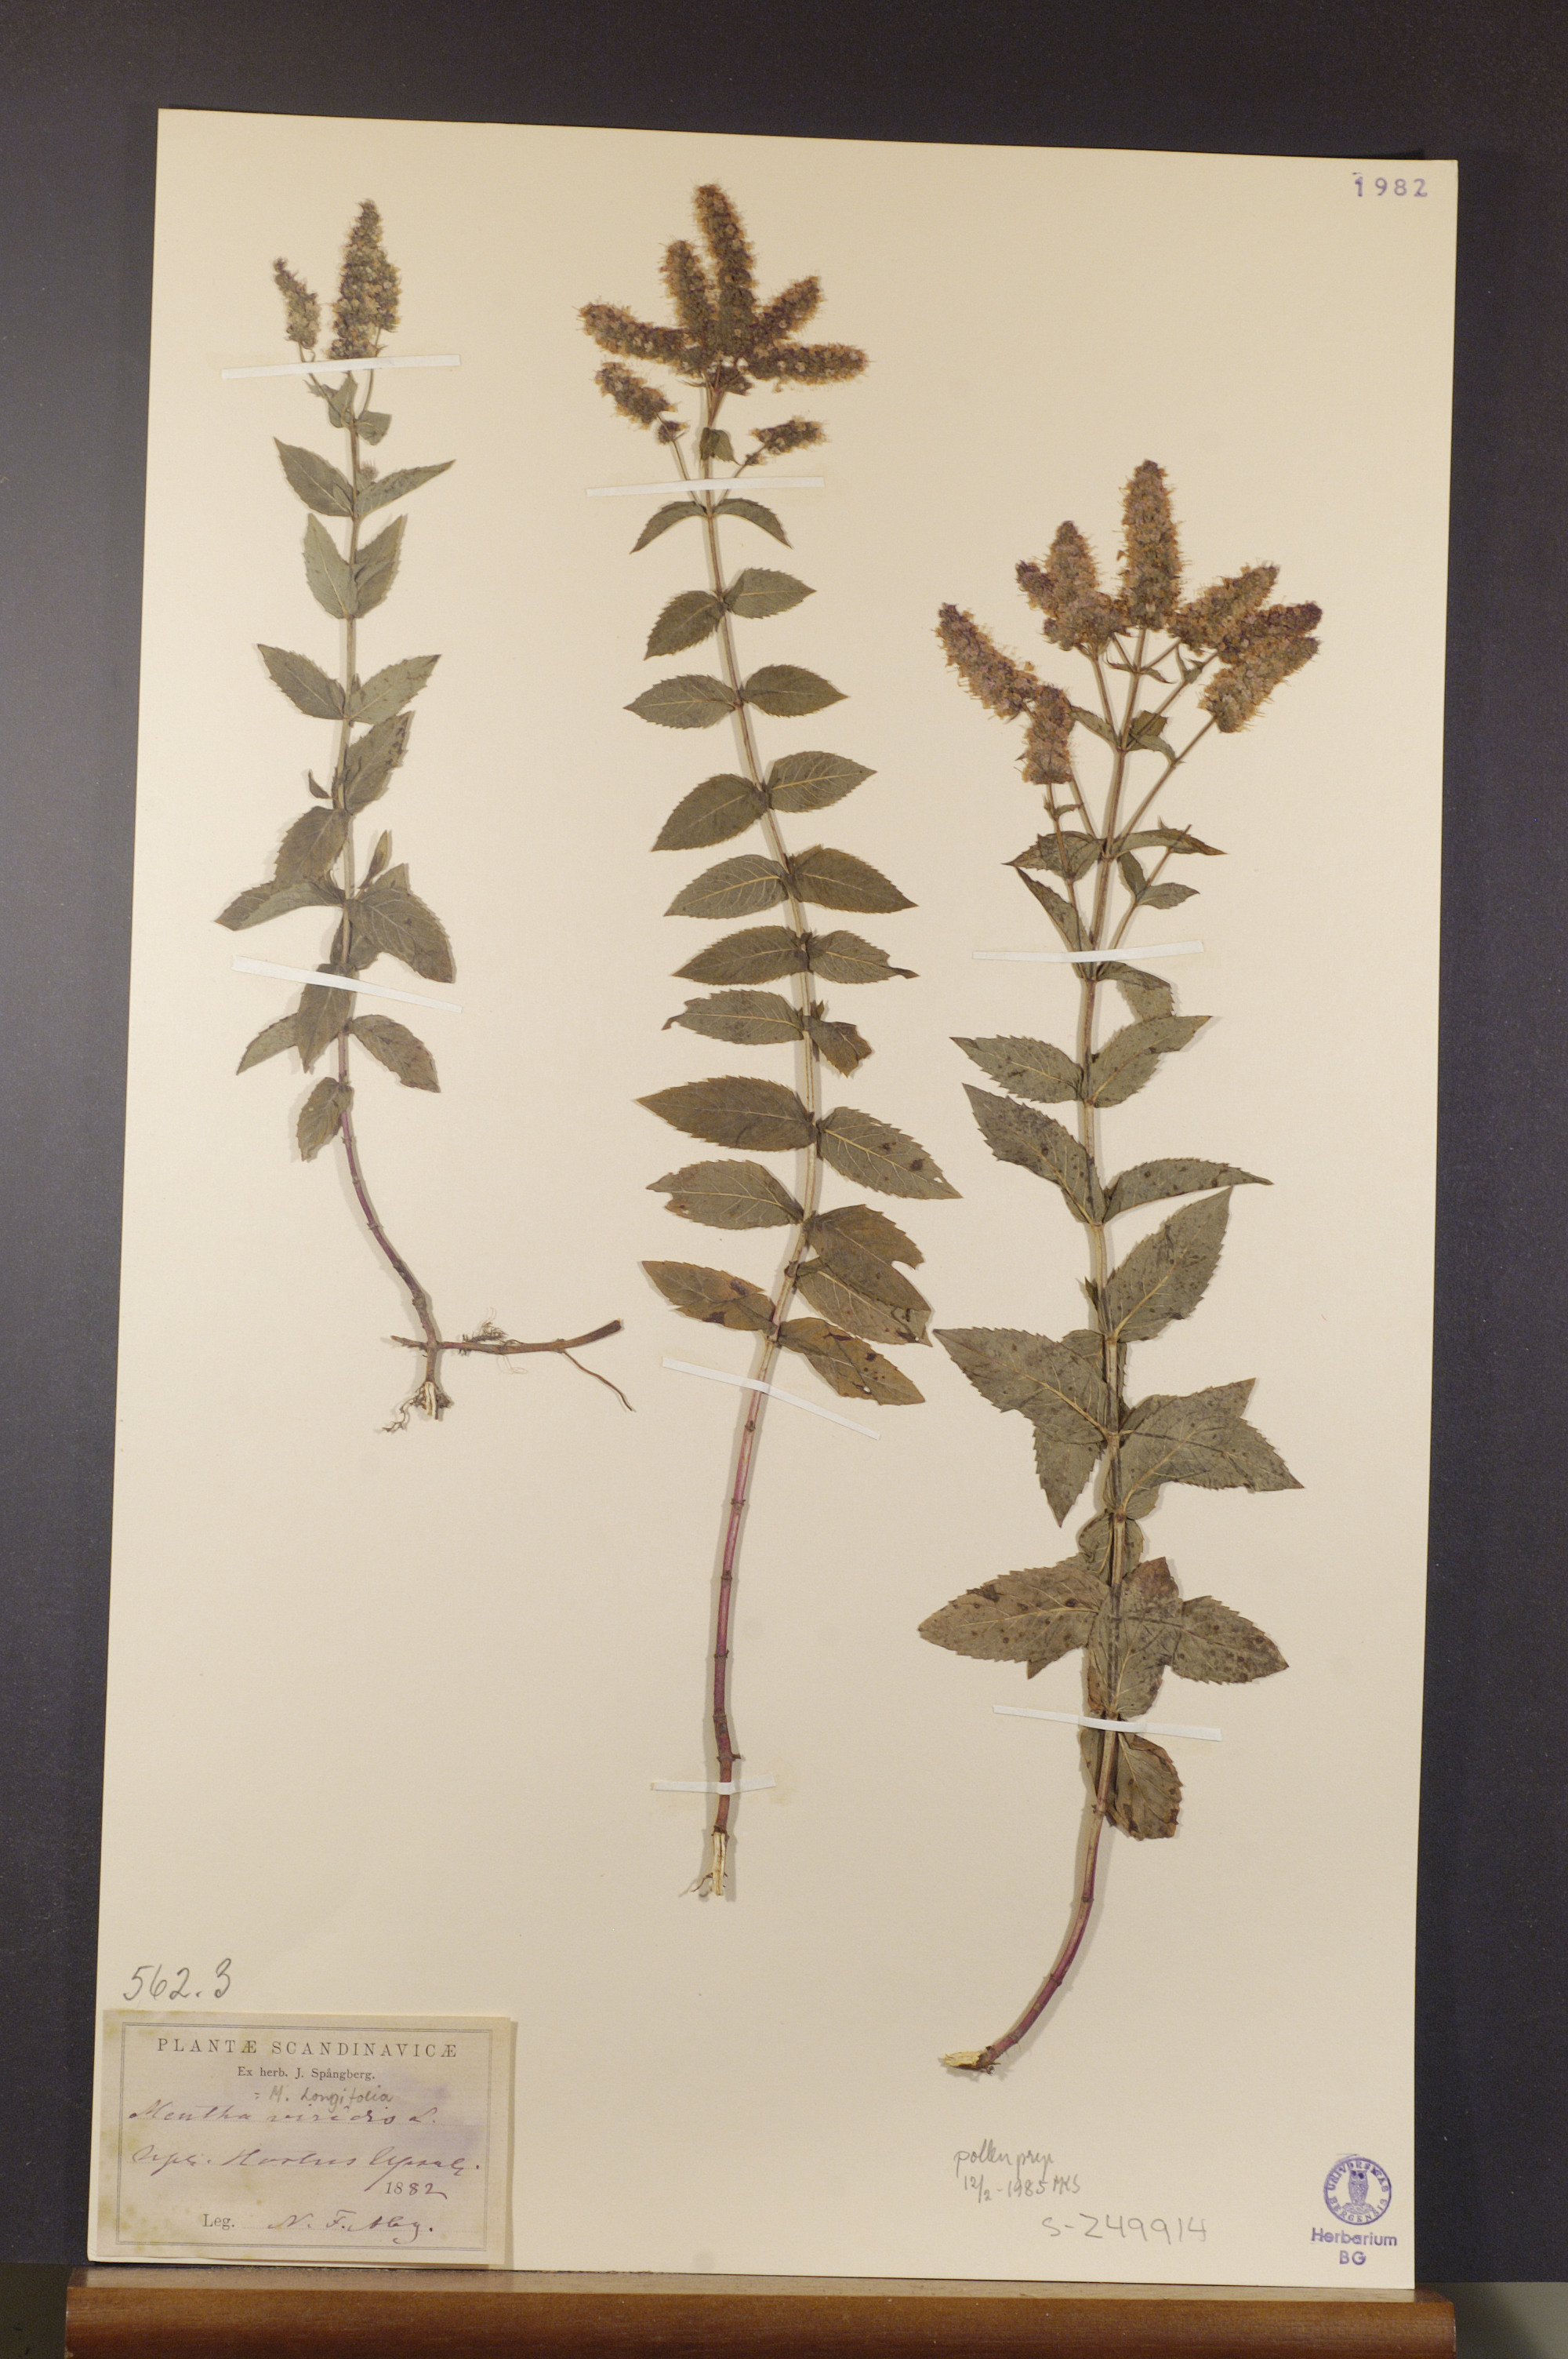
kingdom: Plantae
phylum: Tracheophyta
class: Magnoliopsida
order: Lamiales
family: Lamiaceae
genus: Mentha
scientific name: Mentha spicata
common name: Spearmint
